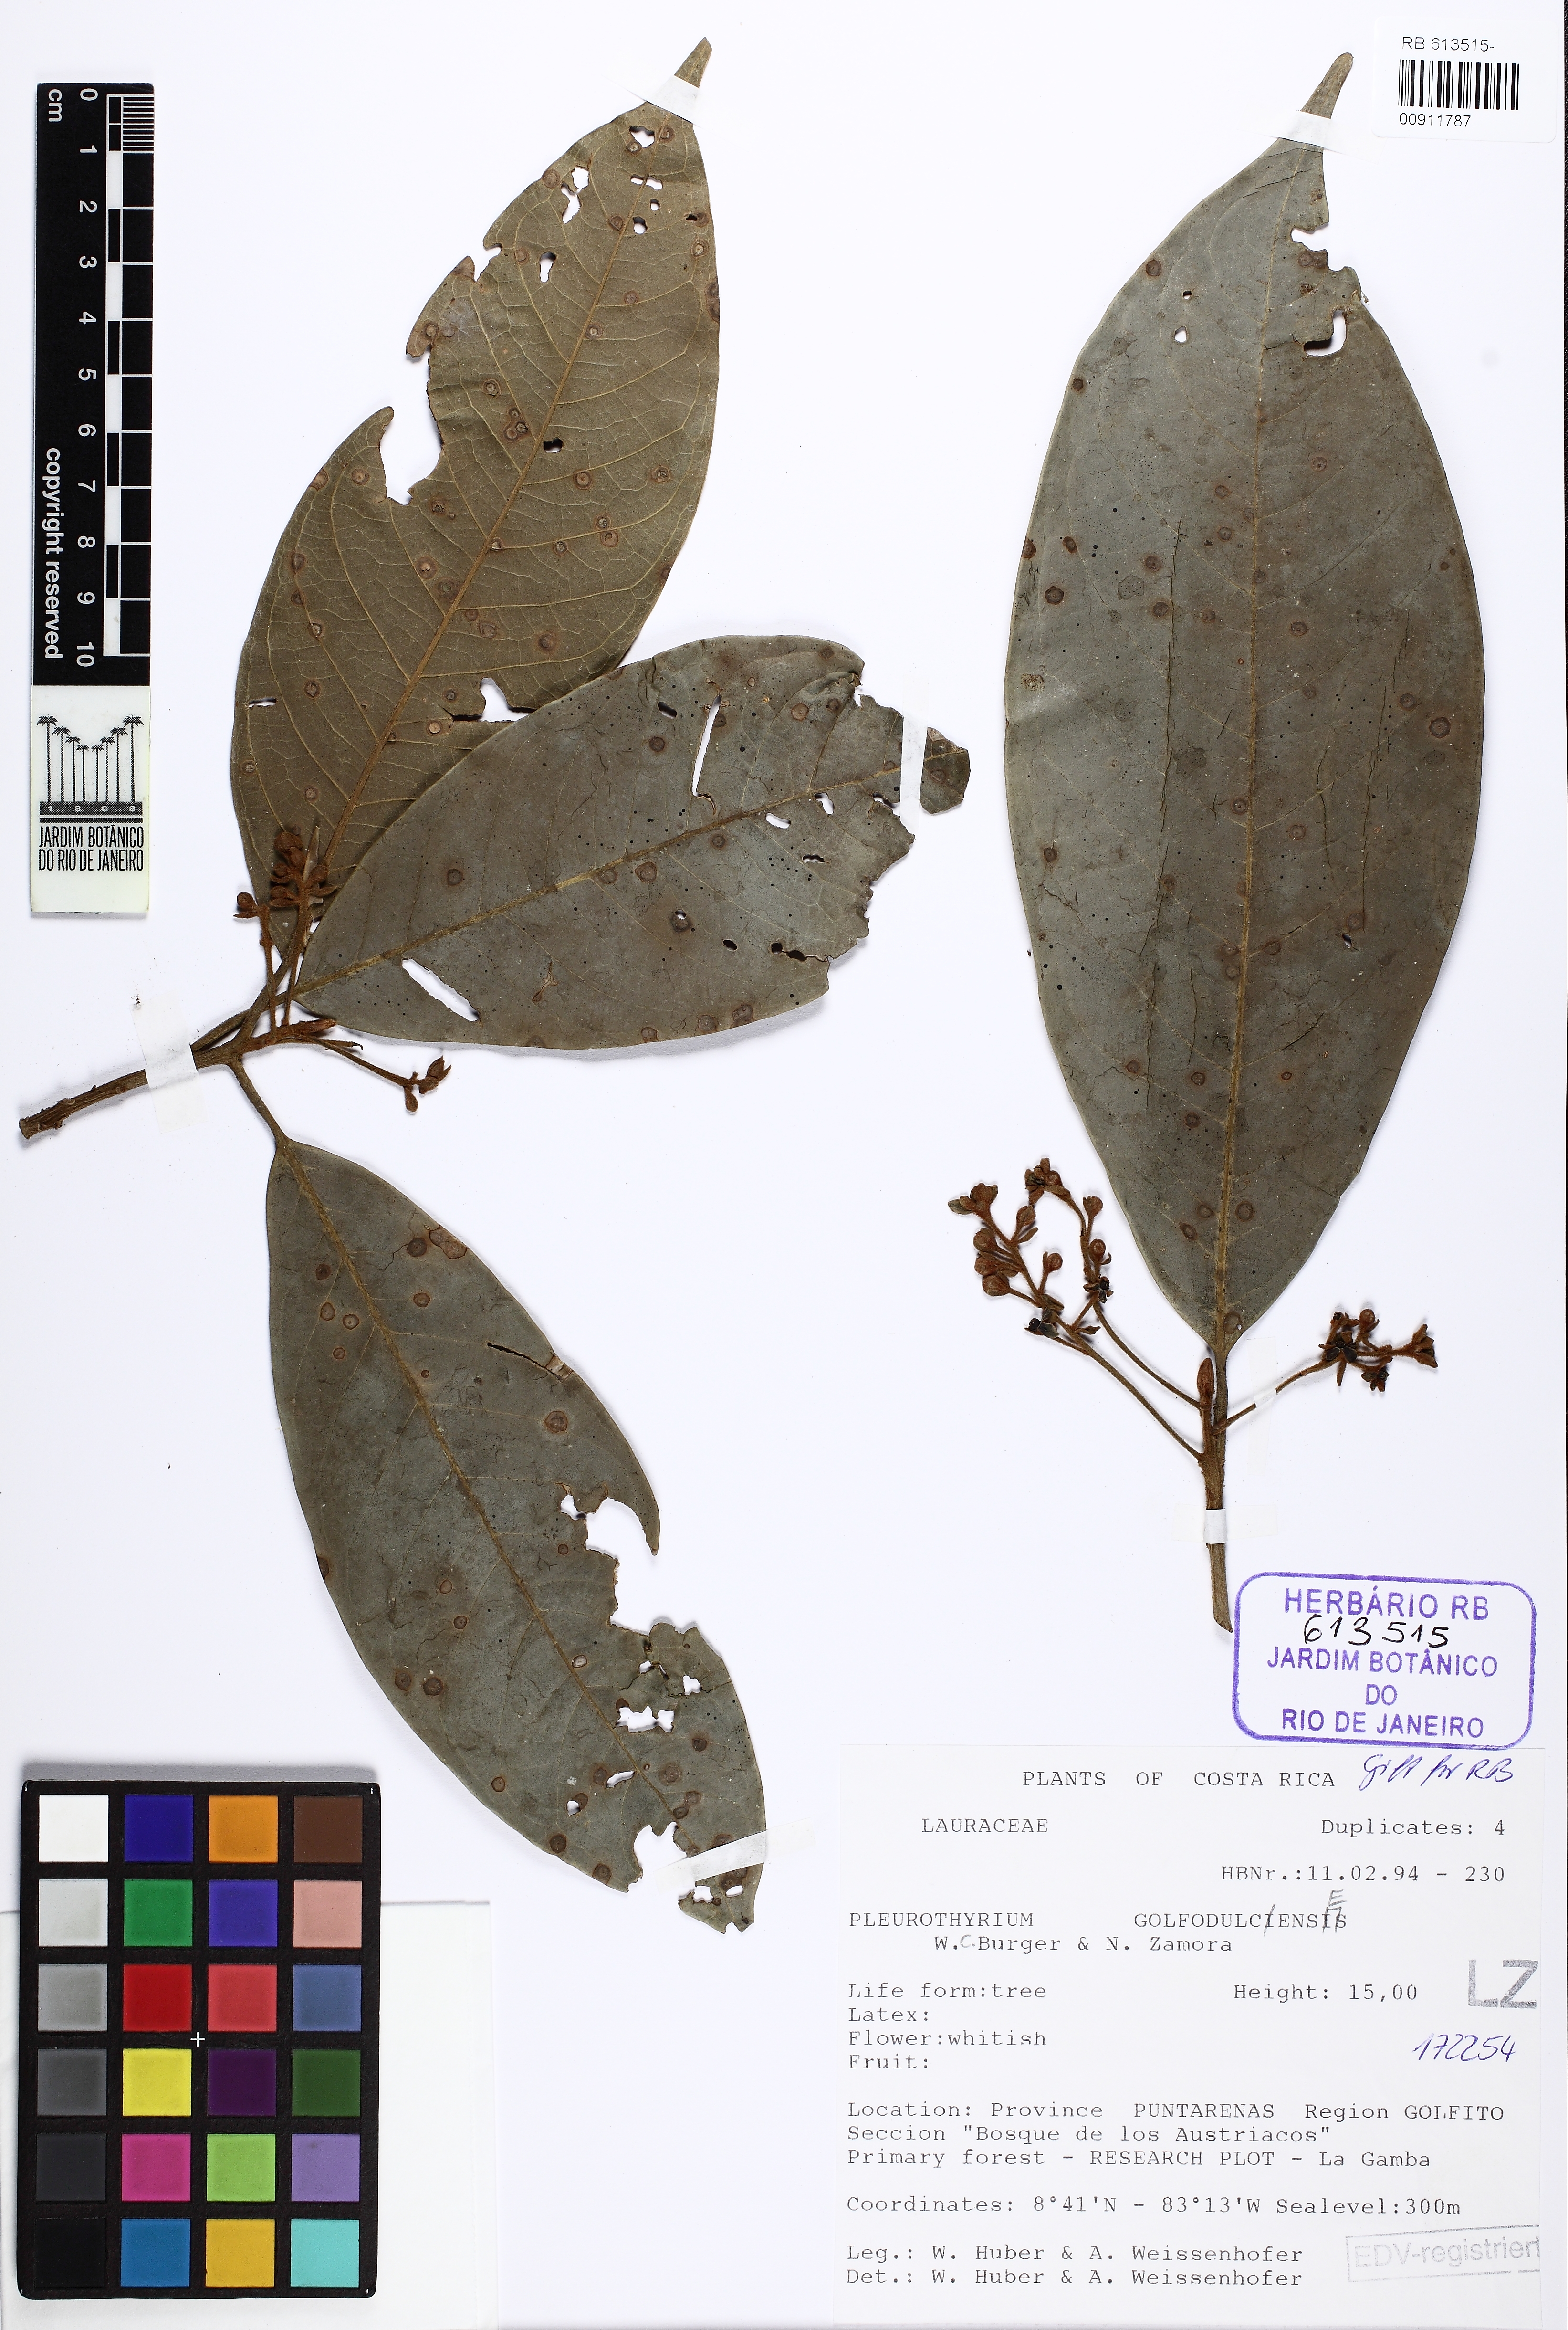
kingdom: Plantae
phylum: Tracheophyta
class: Magnoliopsida
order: Laurales
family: Lauraceae
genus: Pleurothyrium
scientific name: Pleurothyrium golfodulcense
